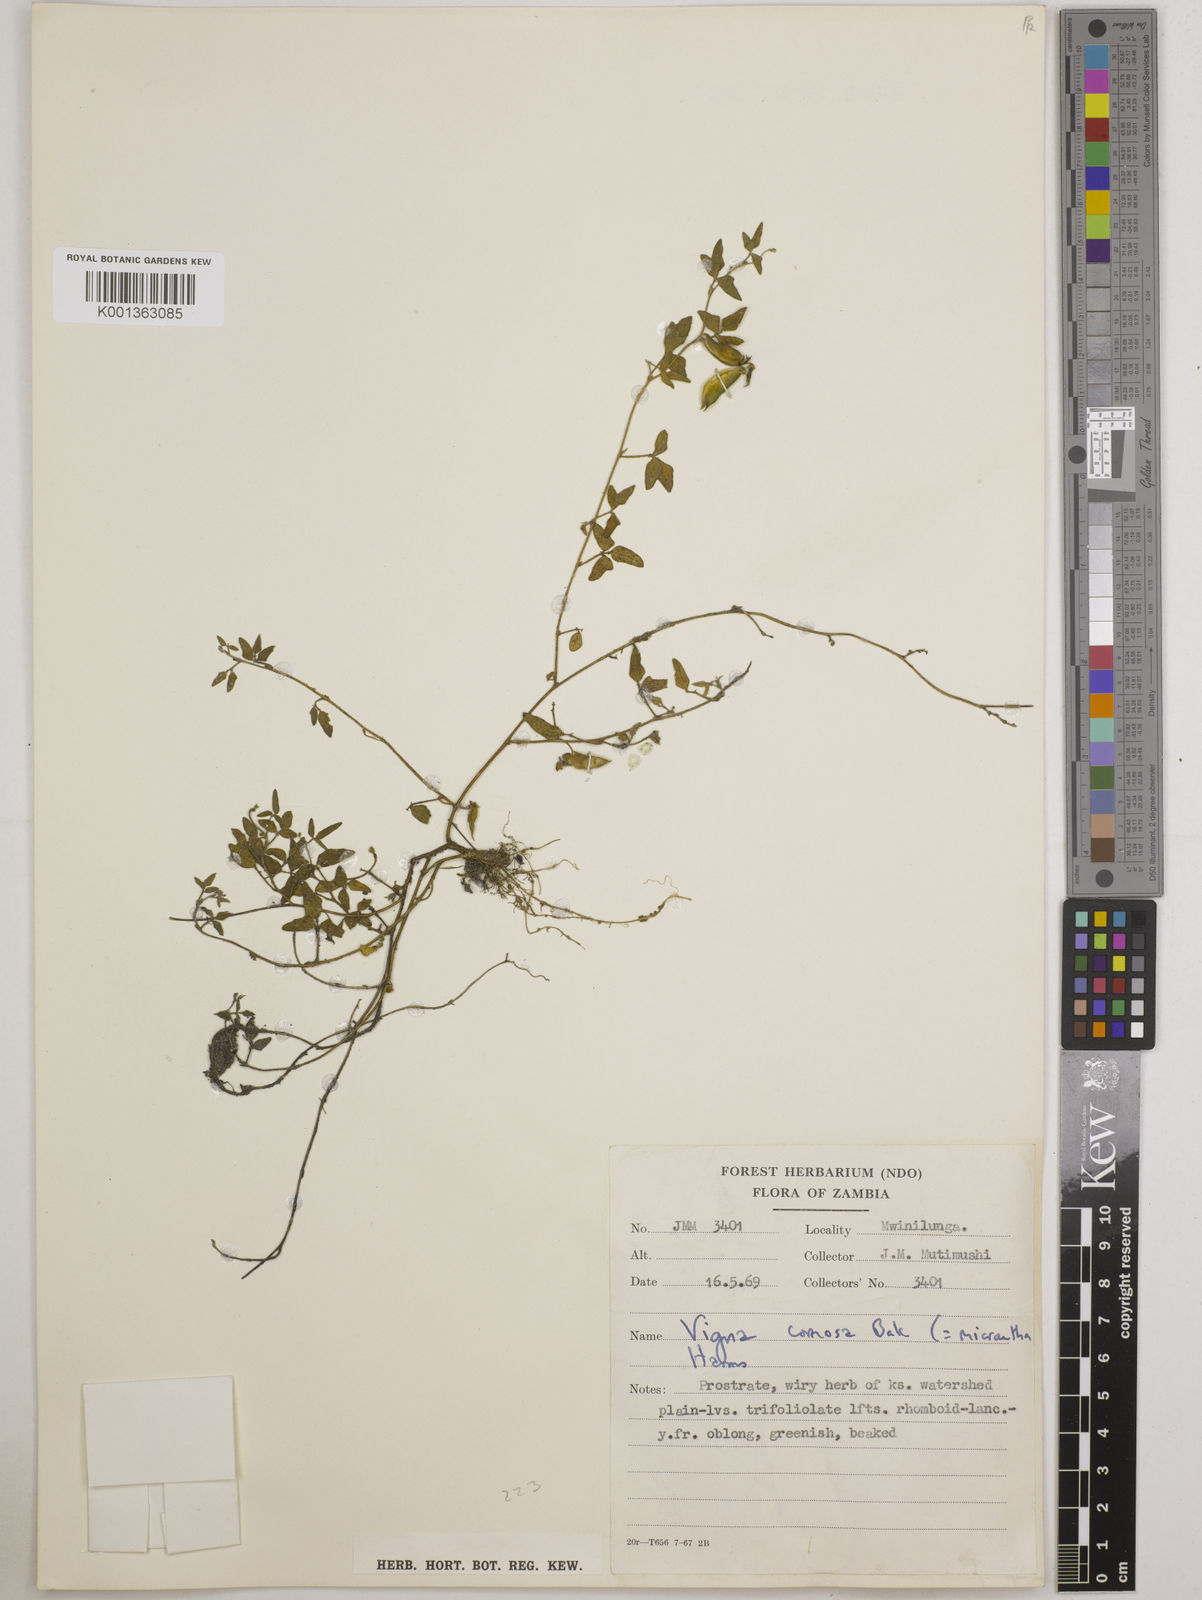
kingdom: Plantae
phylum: Tracheophyta
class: Magnoliopsida
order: Fabales
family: Fabaceae
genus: Vigna
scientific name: Vigna comosa
